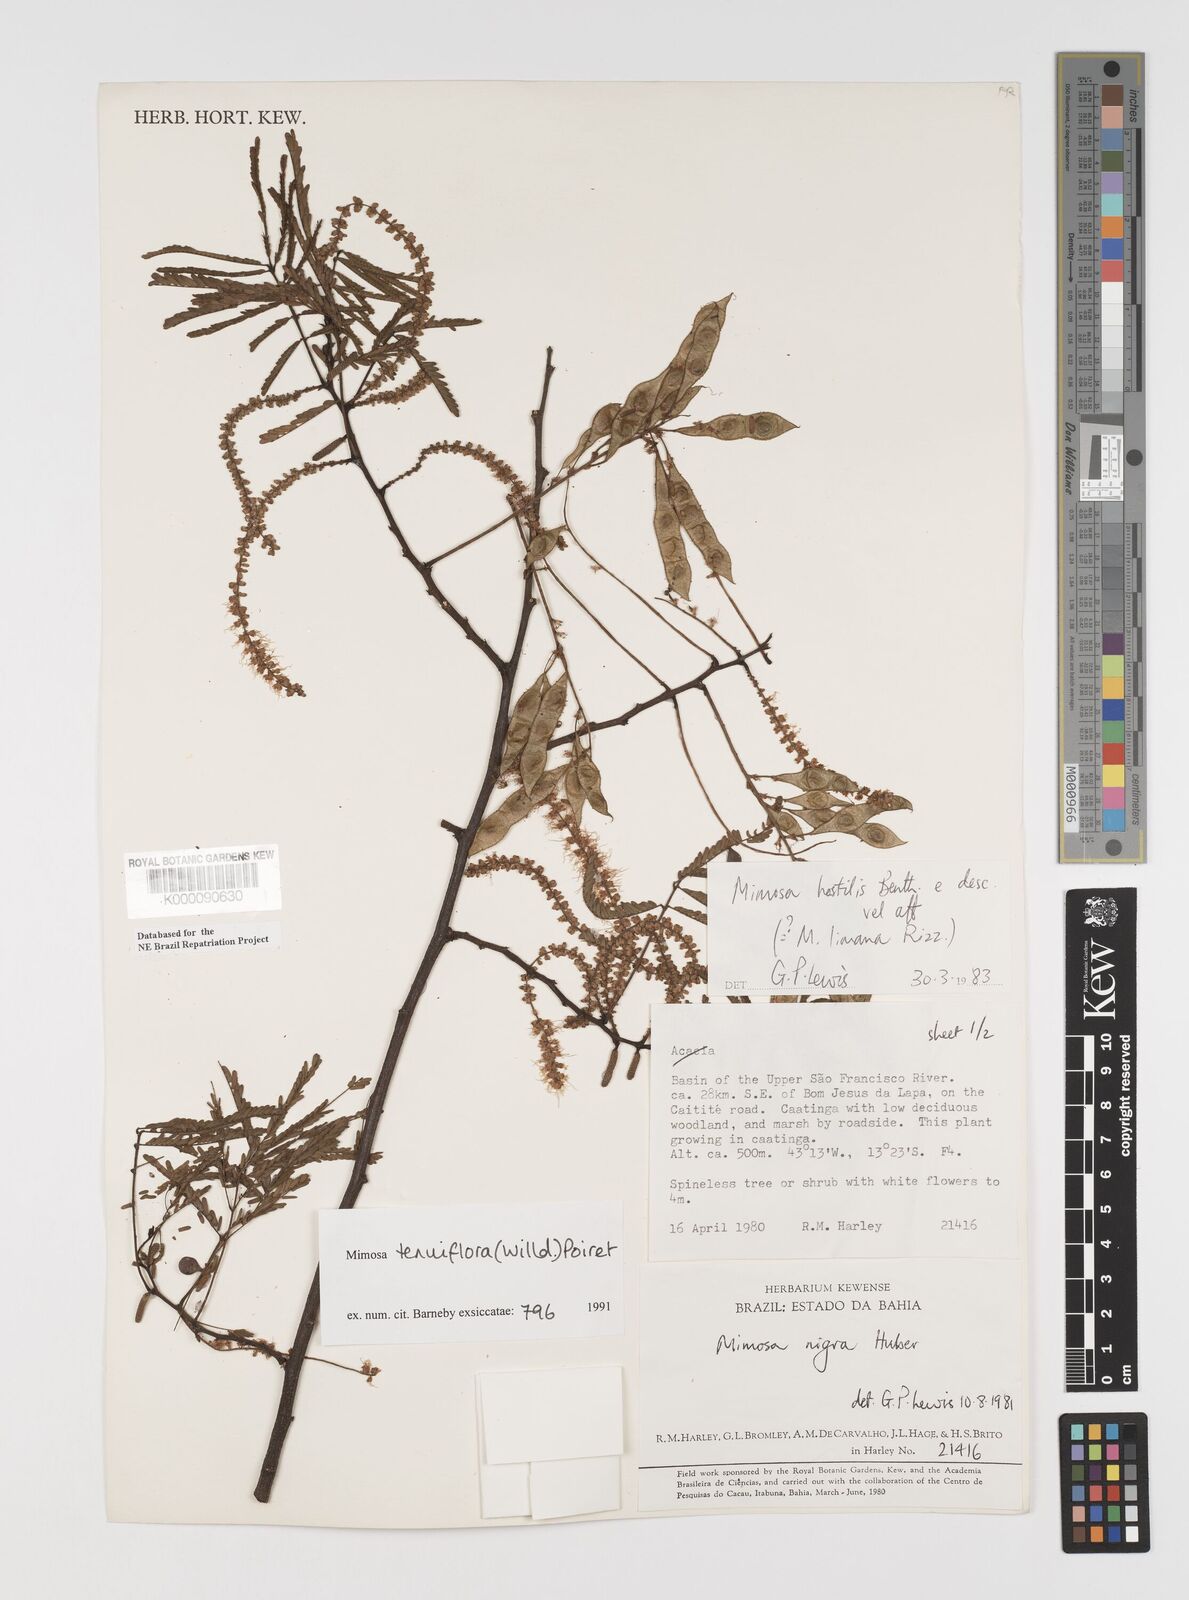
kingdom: Plantae
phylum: Tracheophyta
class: Magnoliopsida
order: Fabales
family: Fabaceae
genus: Mimosa
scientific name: Mimosa tenuiflora
